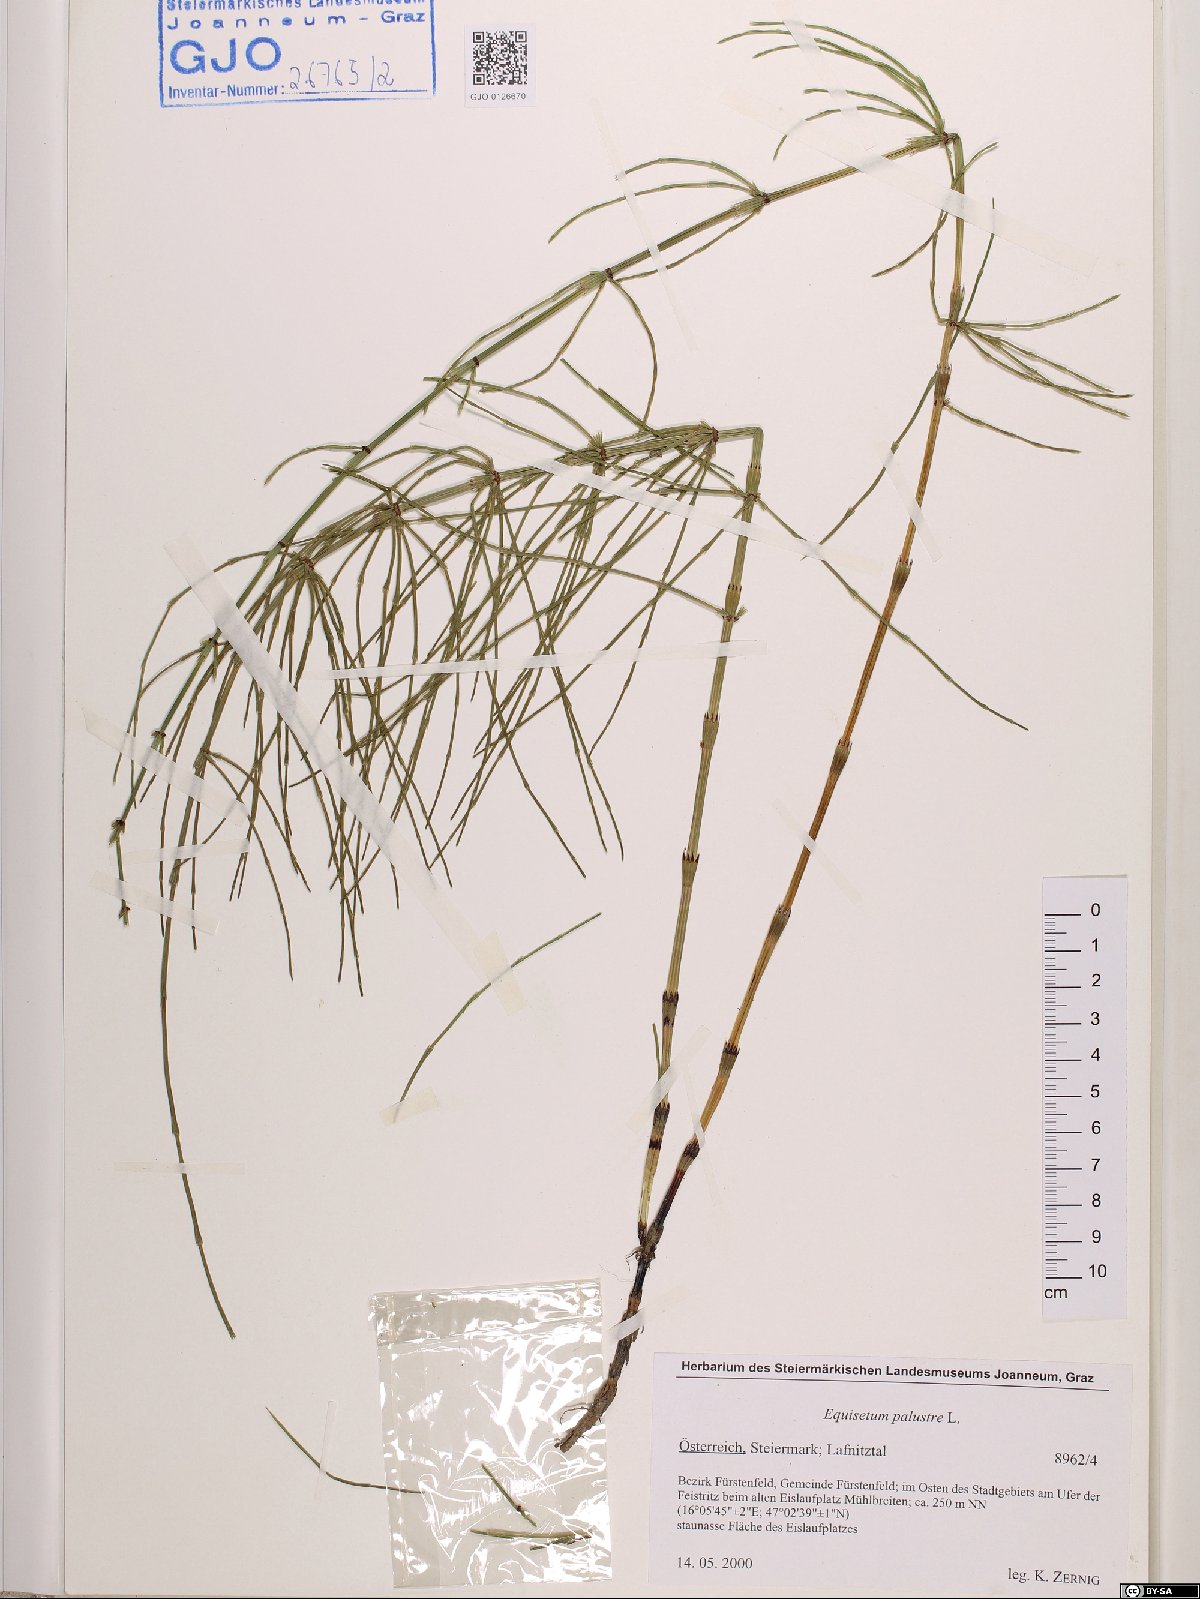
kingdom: Plantae
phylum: Tracheophyta
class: Polypodiopsida
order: Equisetales
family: Equisetaceae
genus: Equisetum
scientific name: Equisetum palustre
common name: Marsh horsetail
